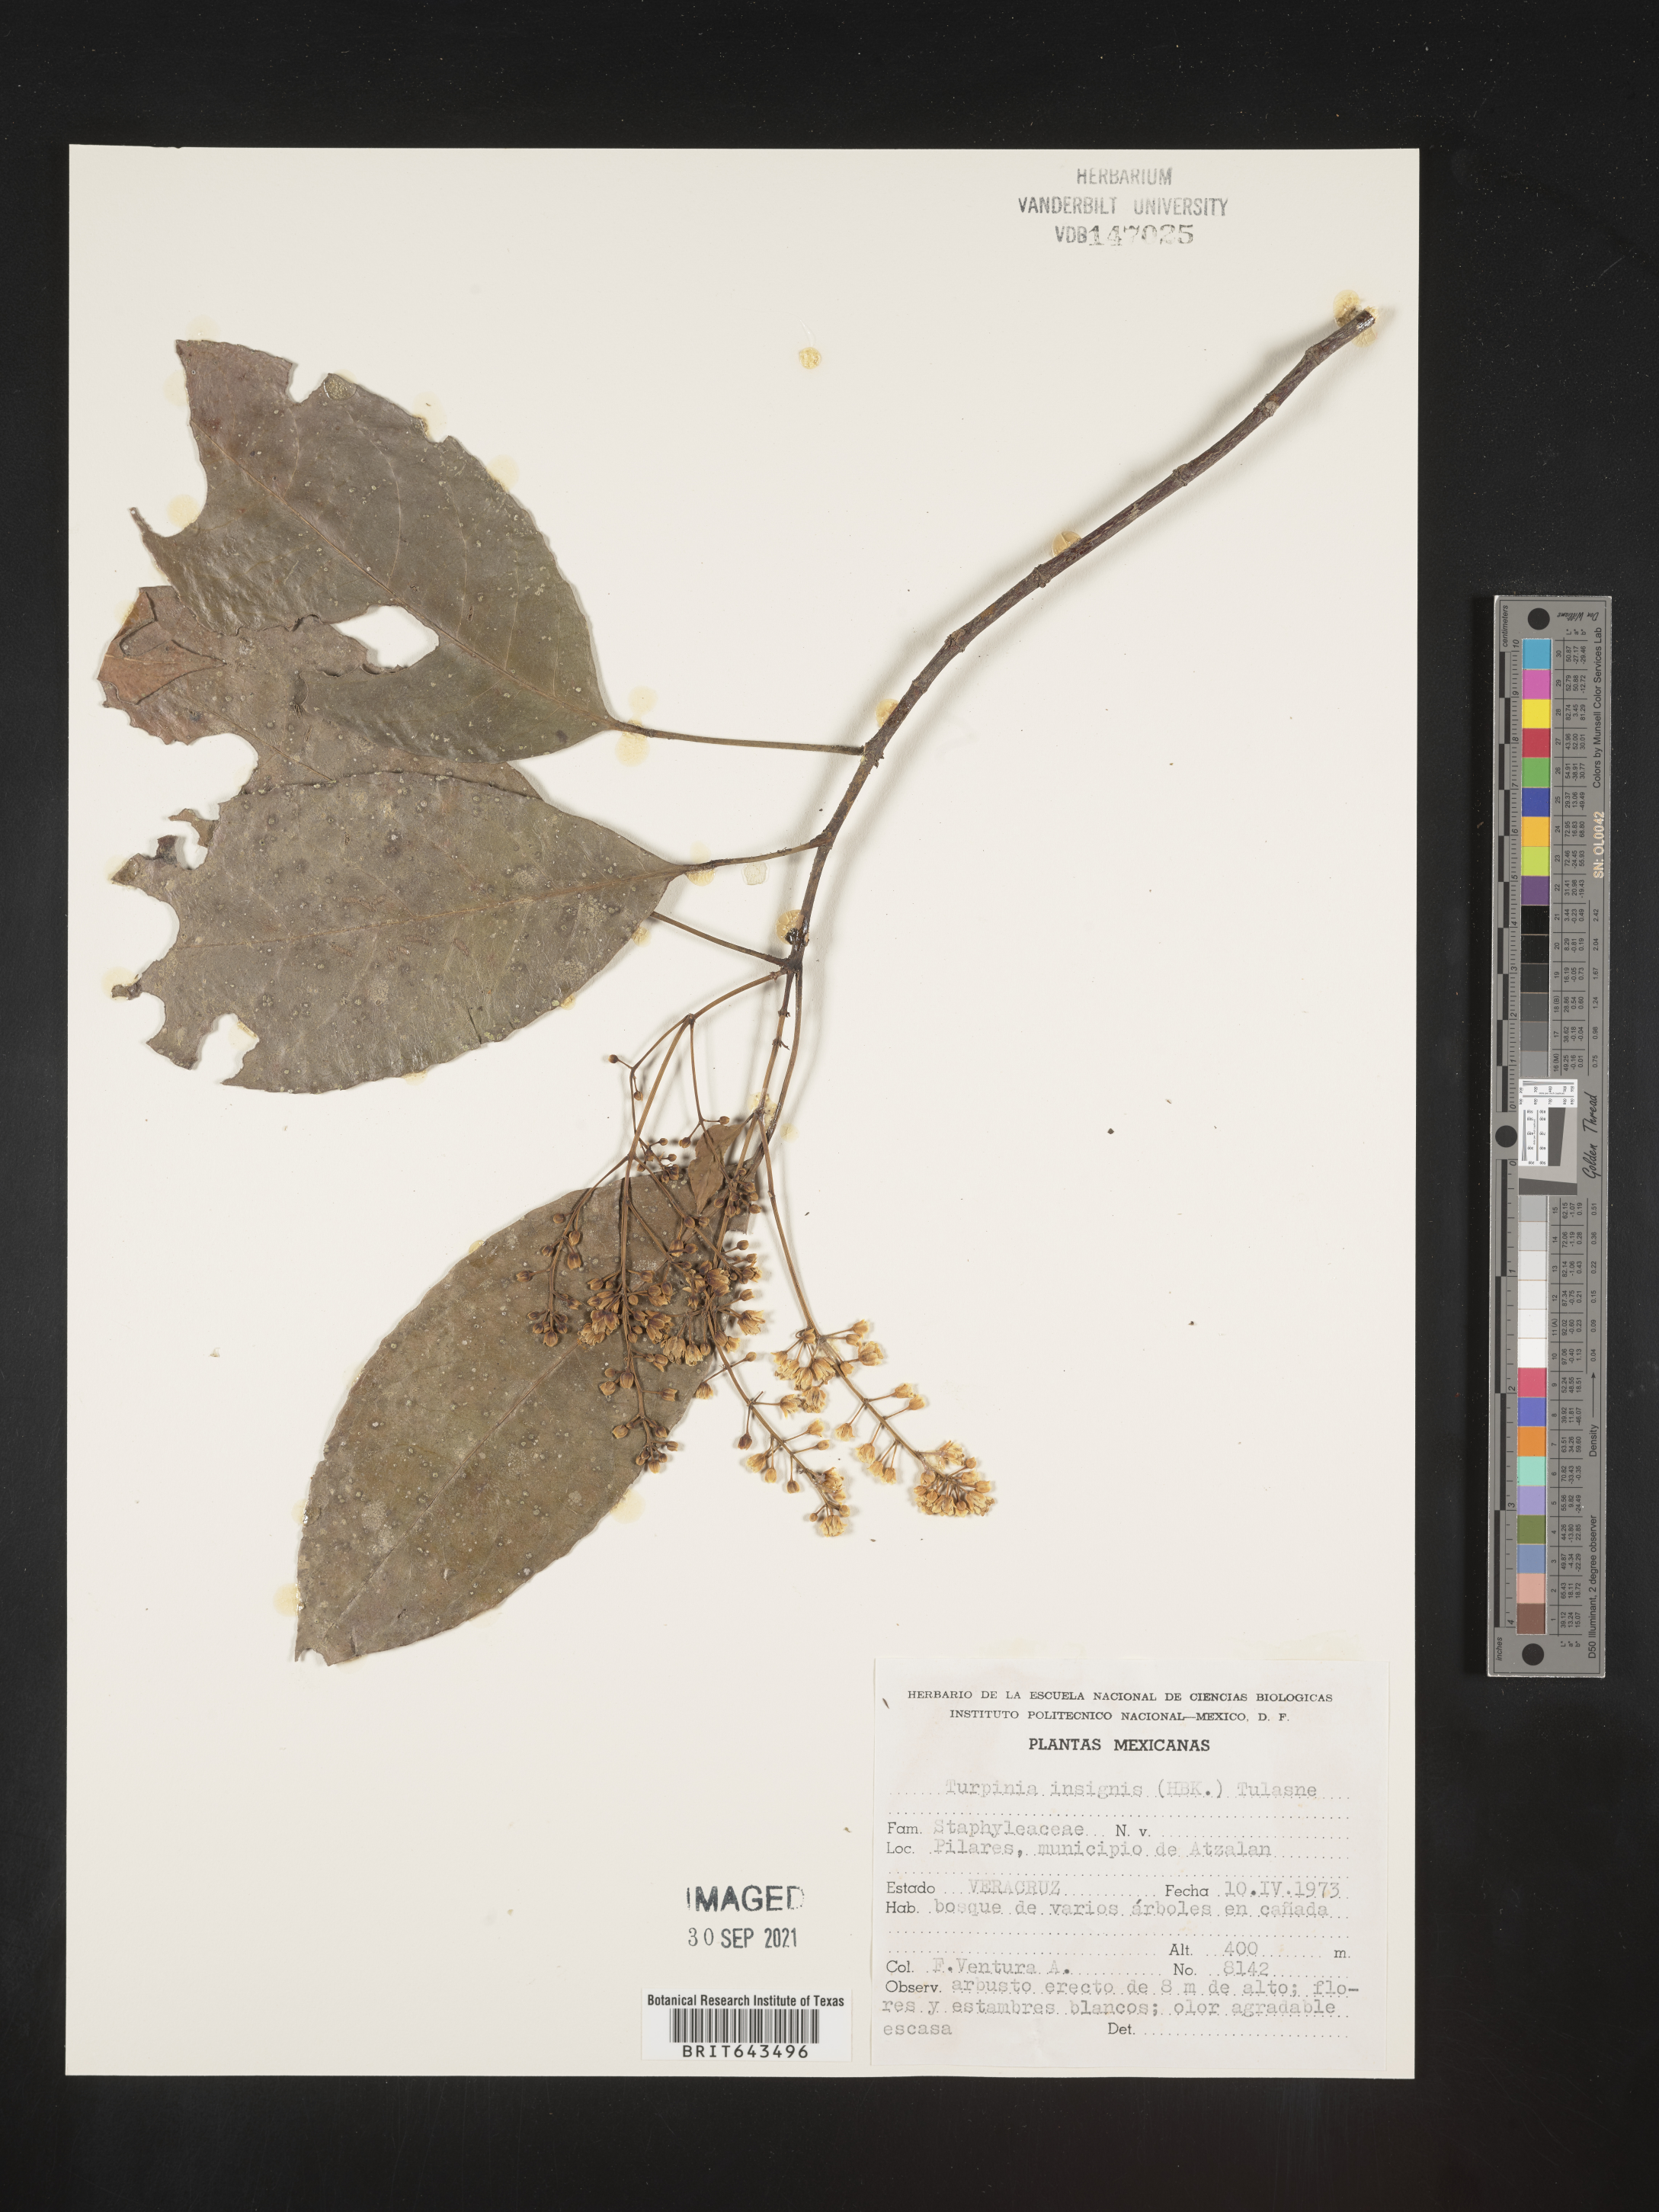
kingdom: Plantae
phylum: Tracheophyta
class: Magnoliopsida
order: Crossosomatales
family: Staphyleaceae
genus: Turpinia
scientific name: Turpinia
